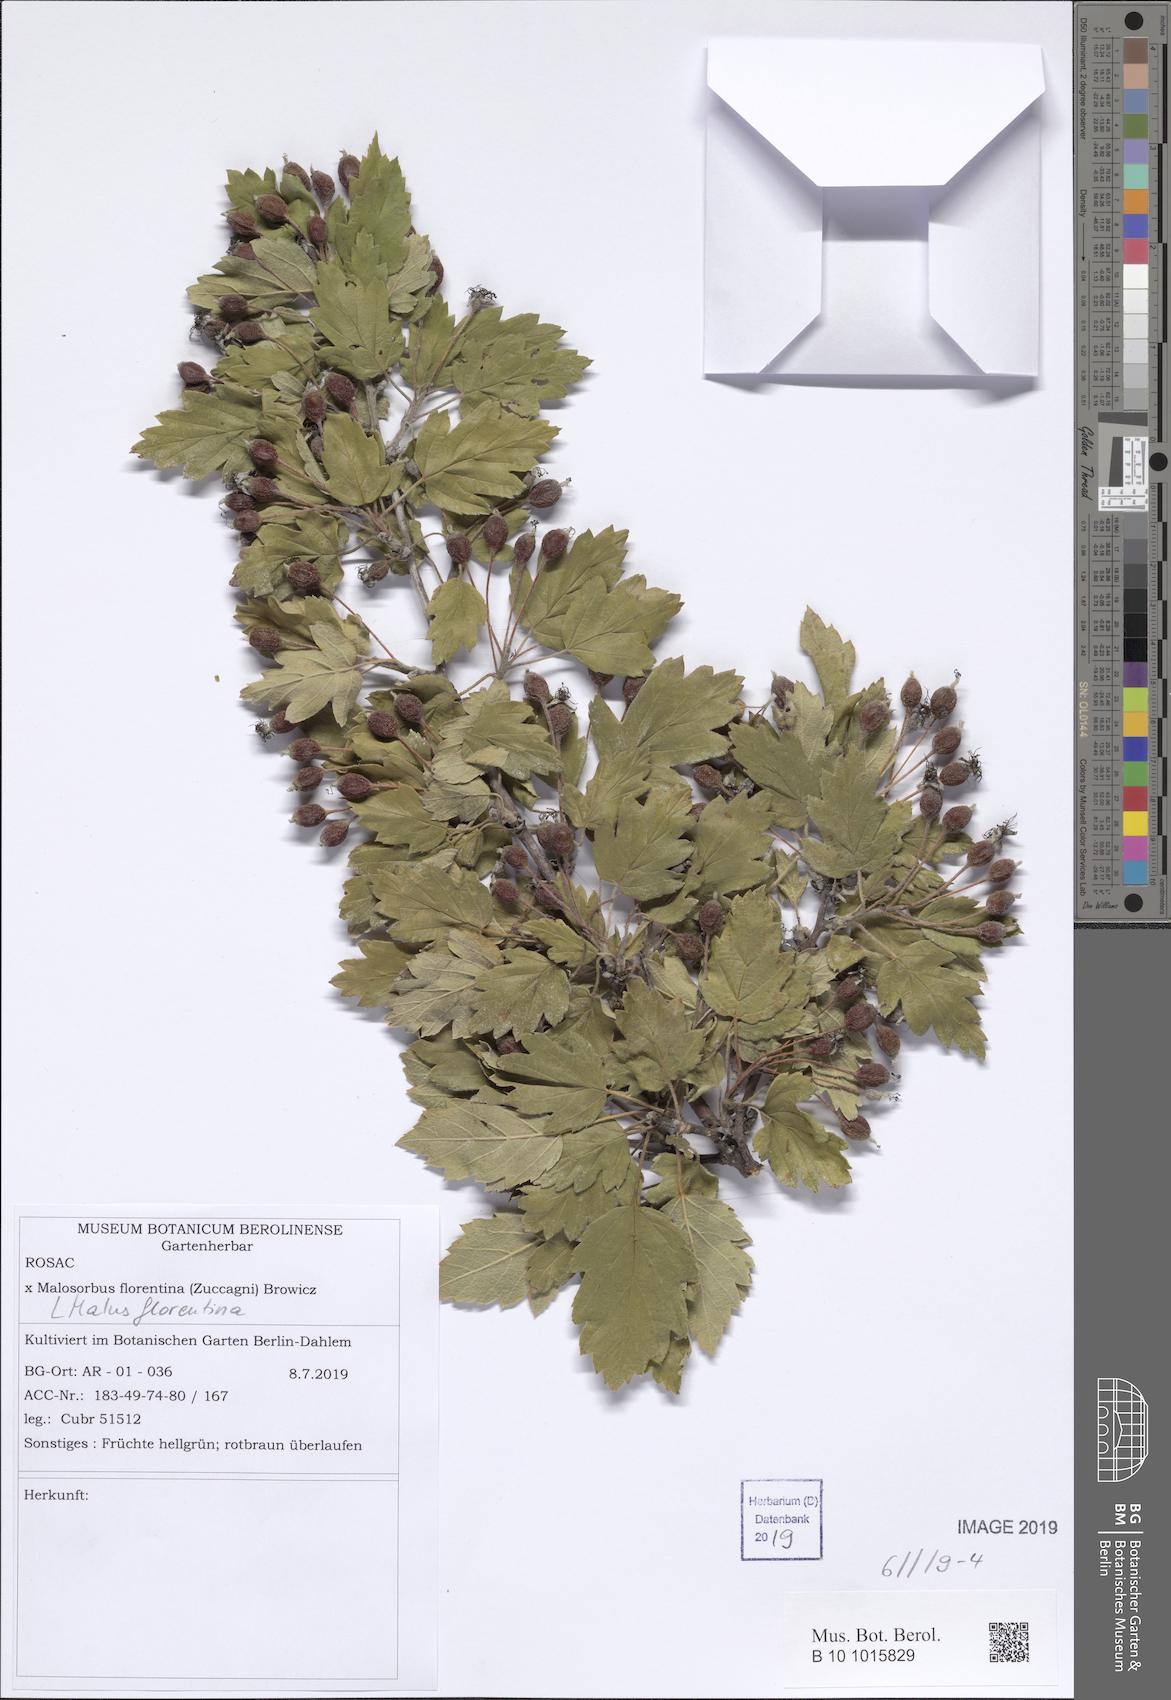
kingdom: Plantae
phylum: Tracheophyta
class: Magnoliopsida
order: Rosales
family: Rosaceae
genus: Tormimalus
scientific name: Tormimalus florentina
